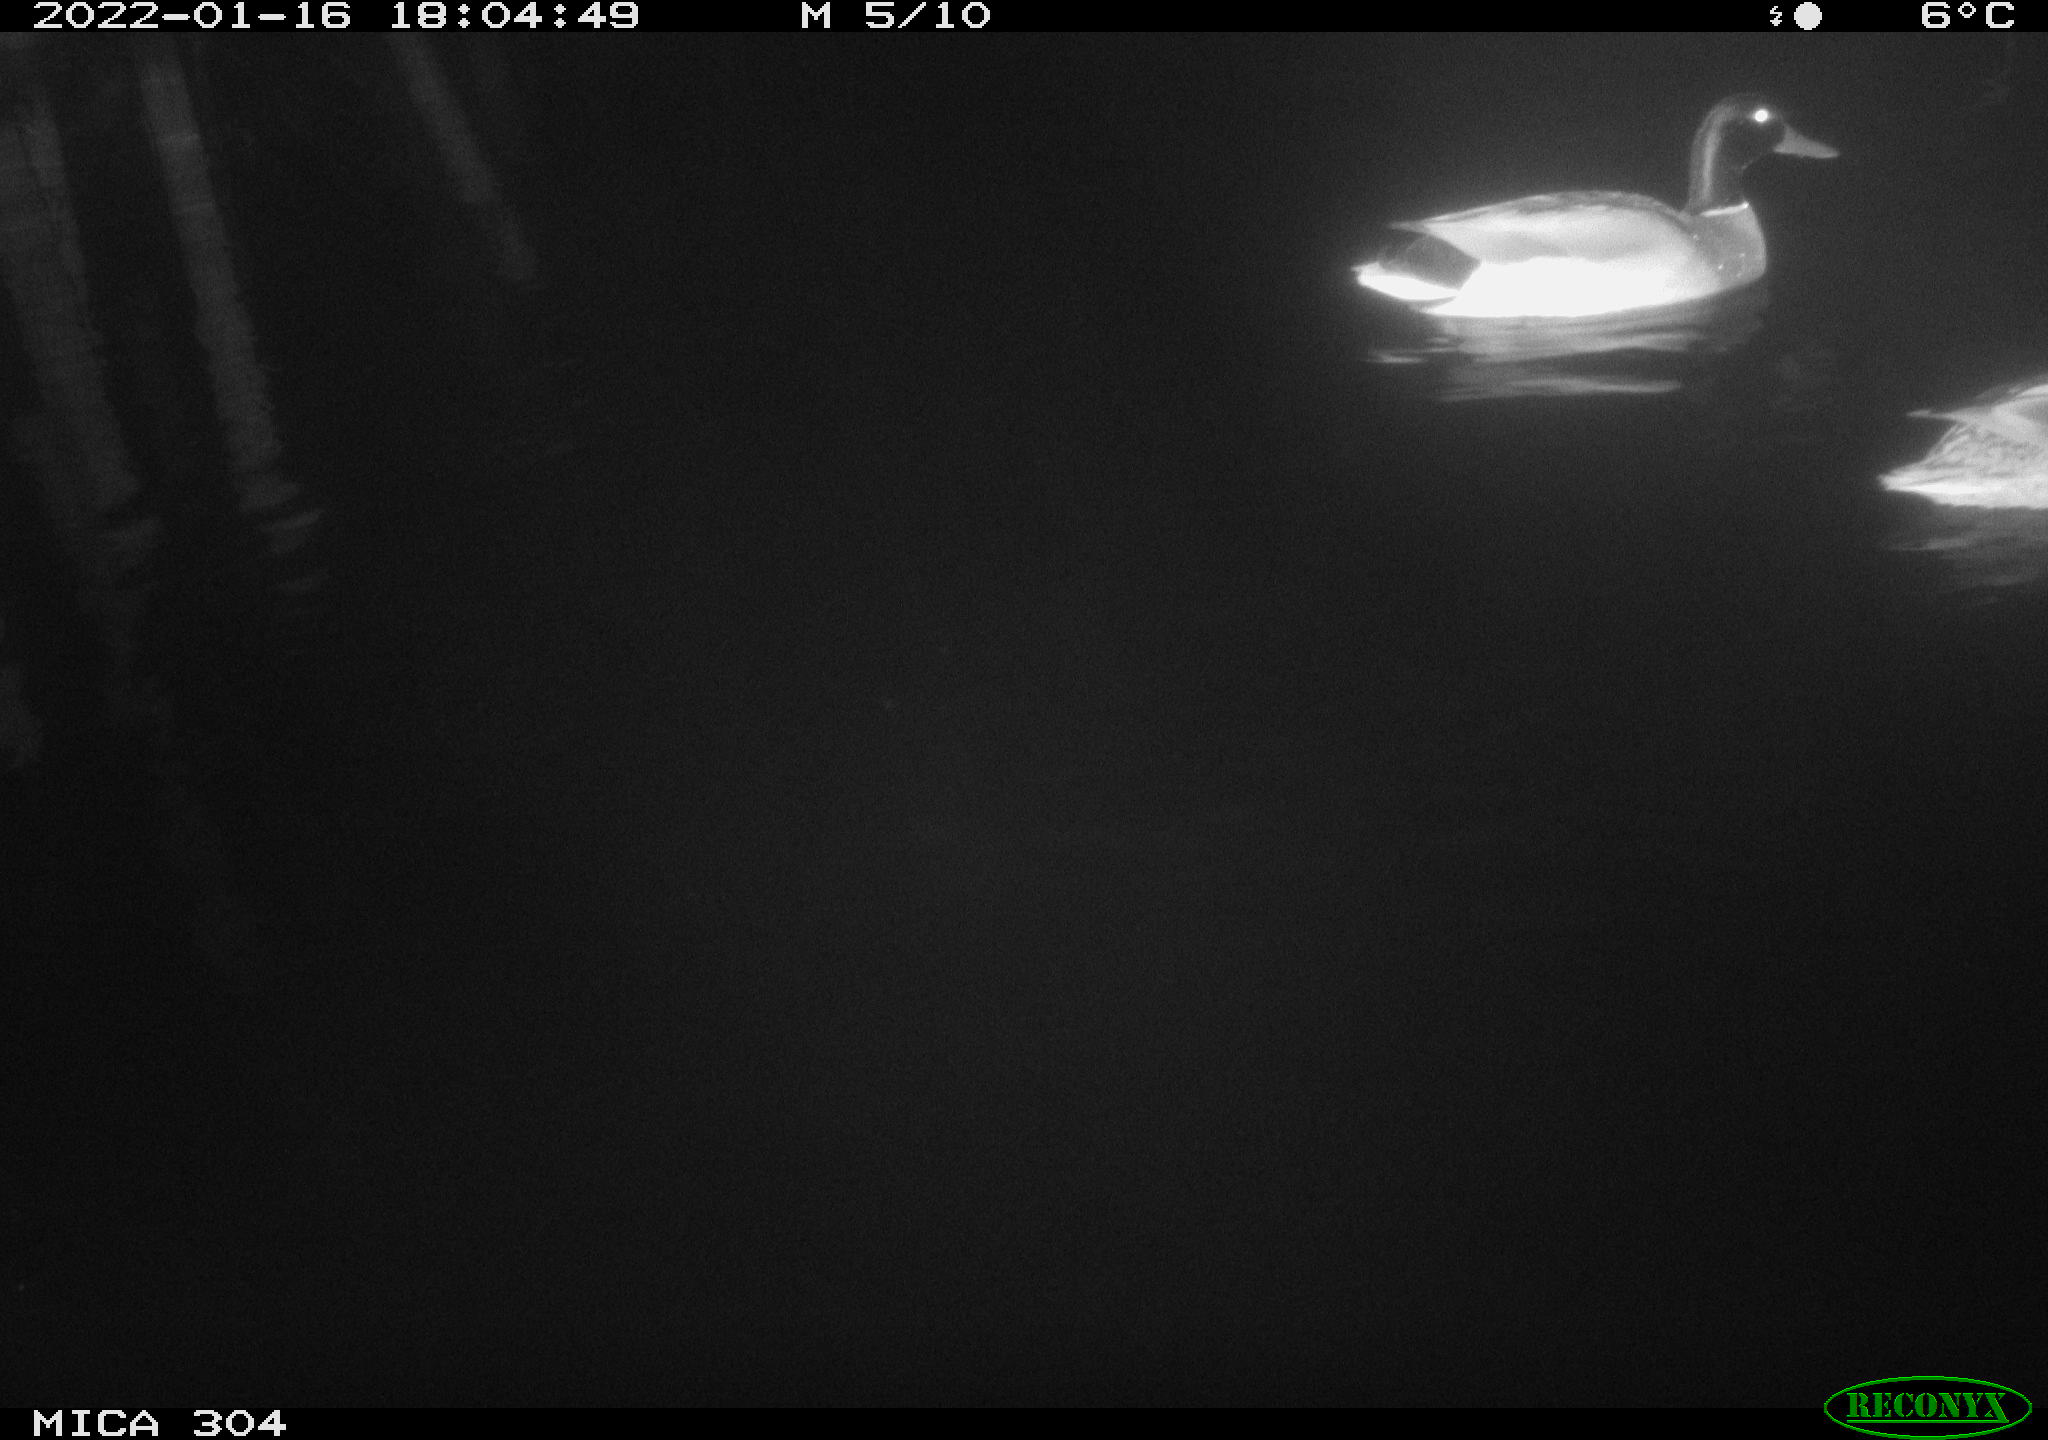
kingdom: Animalia
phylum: Chordata
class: Aves
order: Anseriformes
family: Anatidae
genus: Anas
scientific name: Anas
